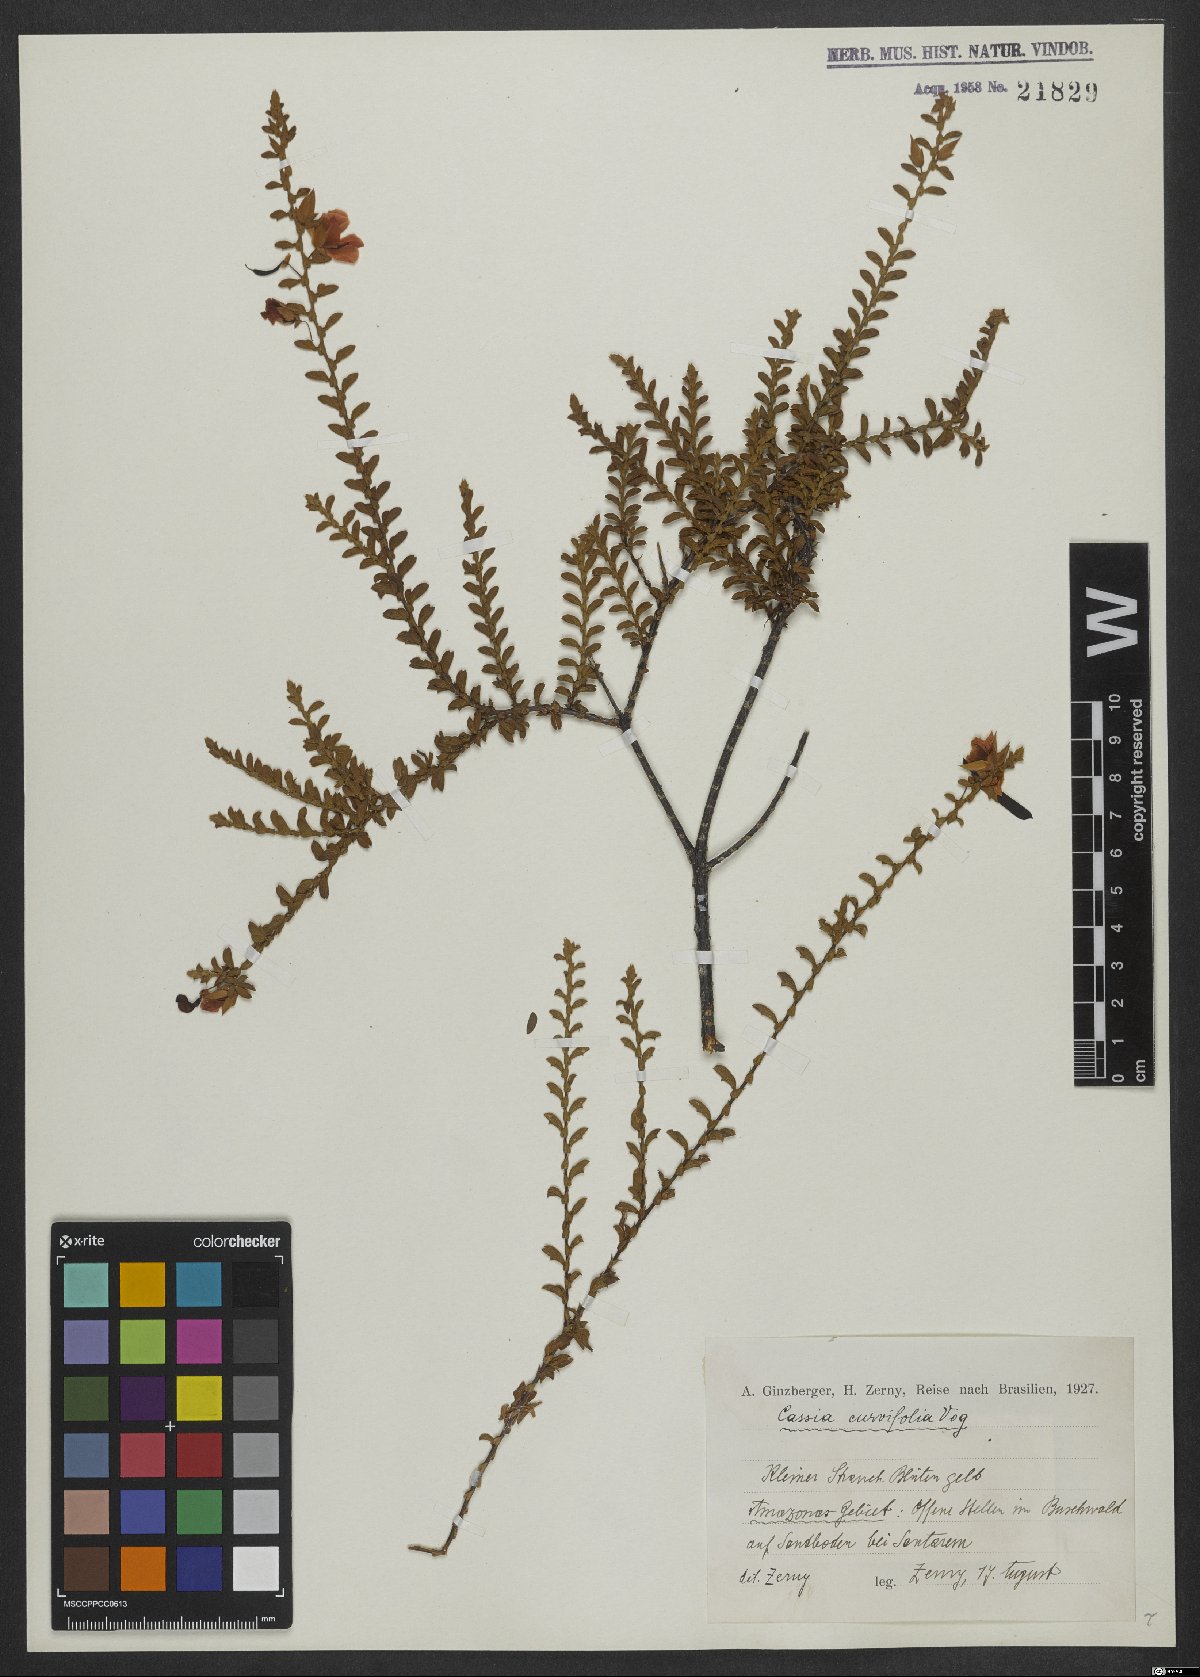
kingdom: Plantae
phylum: Tracheophyta
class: Magnoliopsida
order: Fabales
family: Fabaceae
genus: Chamaecrista
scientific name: Chamaecrista ramosa
